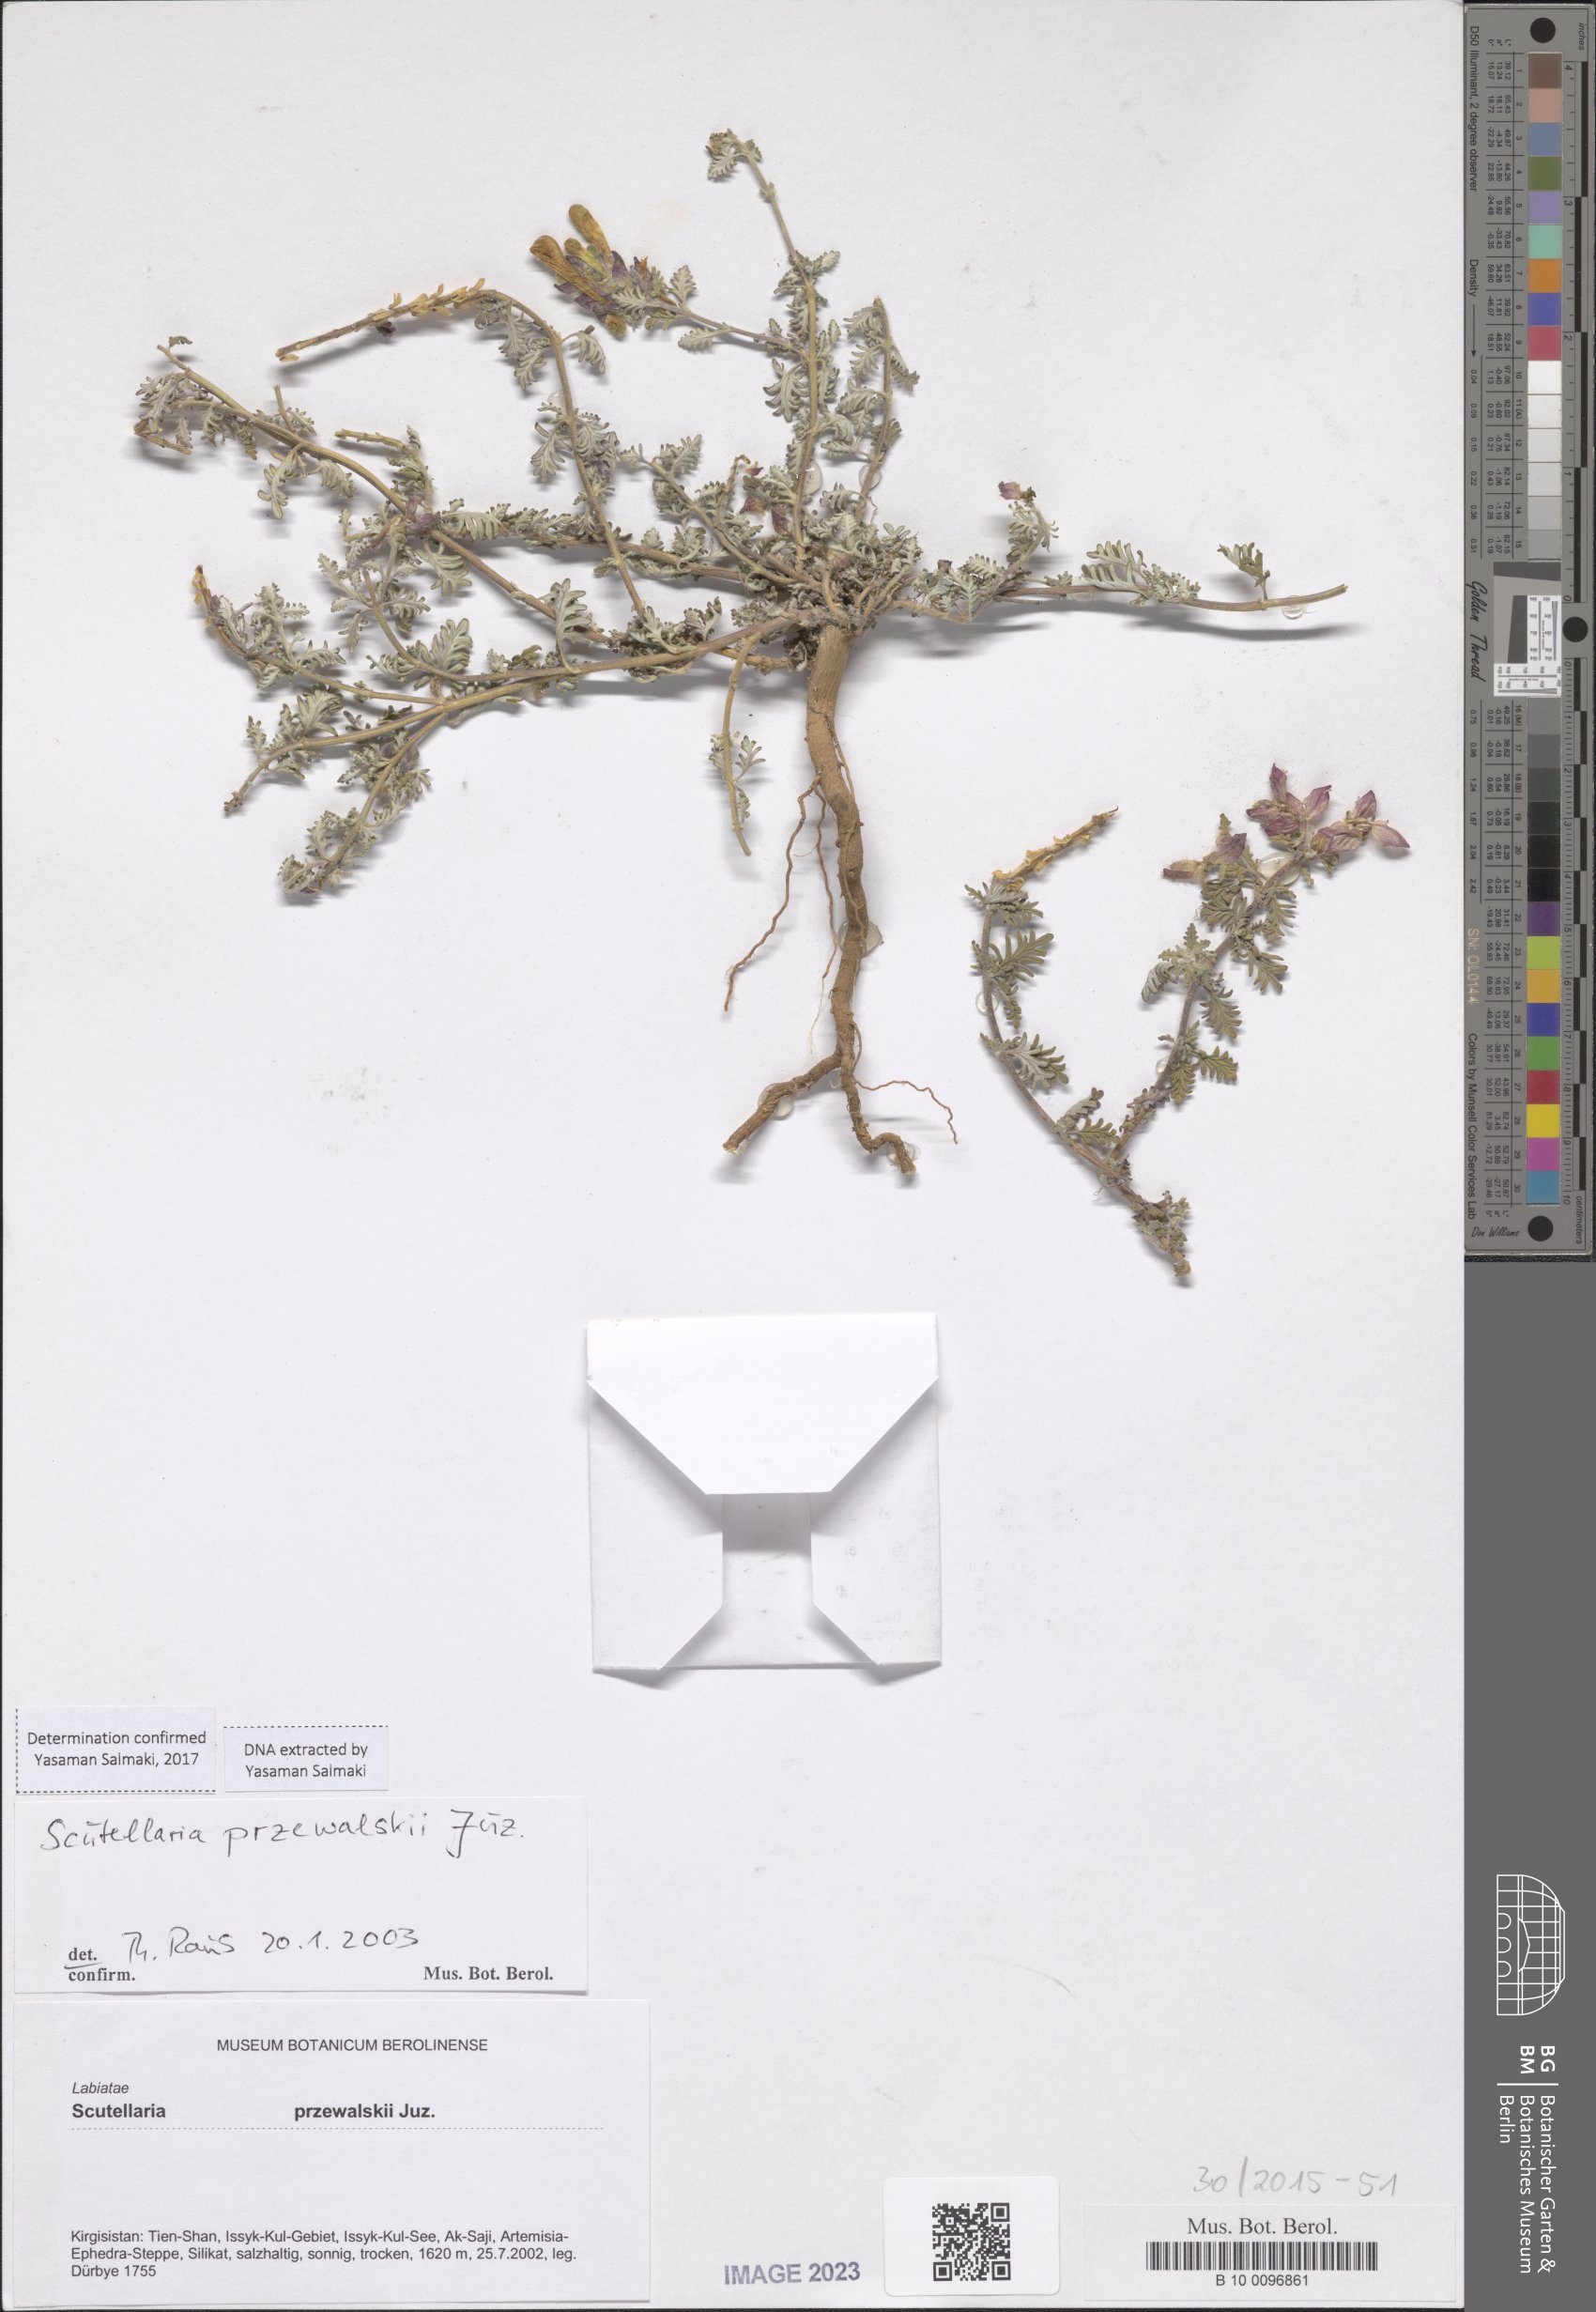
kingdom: Plantae
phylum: Tracheophyta
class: Magnoliopsida
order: Lamiales
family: Lamiaceae
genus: Scutellaria
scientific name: Scutellaria przewalskii
